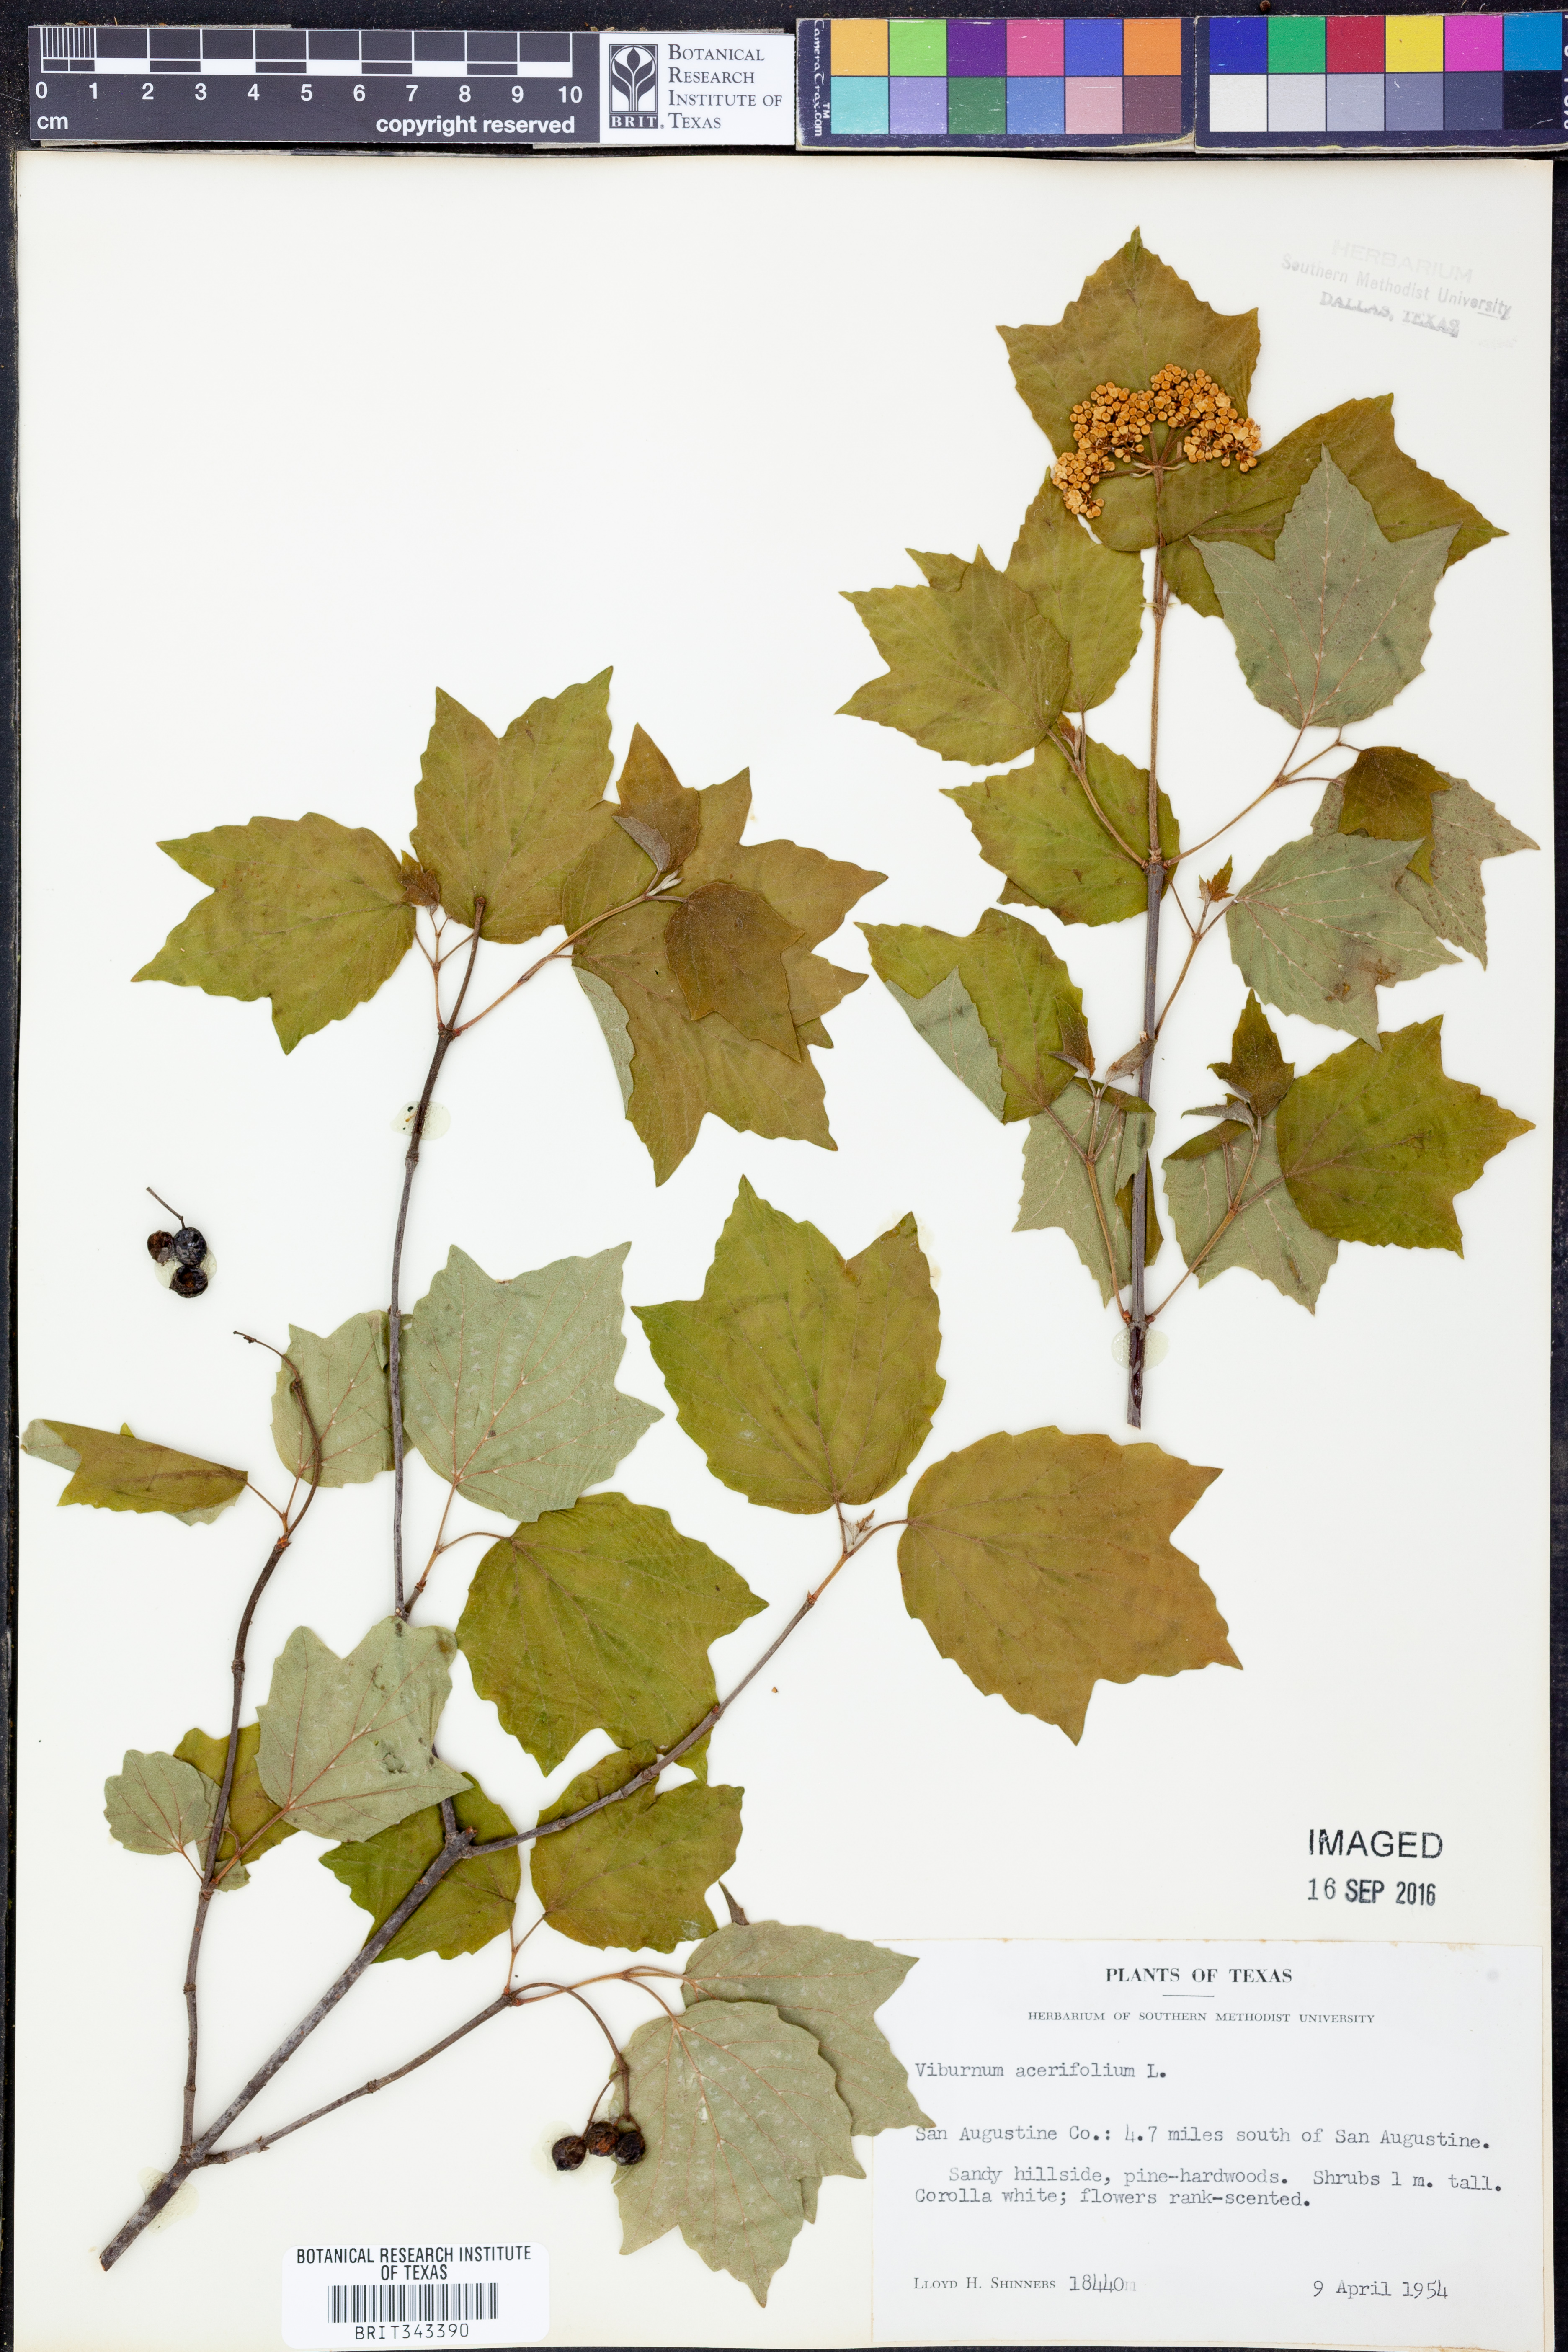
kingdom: Plantae
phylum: Tracheophyta
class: Magnoliopsida
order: Dipsacales
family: Viburnaceae
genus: Viburnum
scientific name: Viburnum acerifolium
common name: Dockmackie
